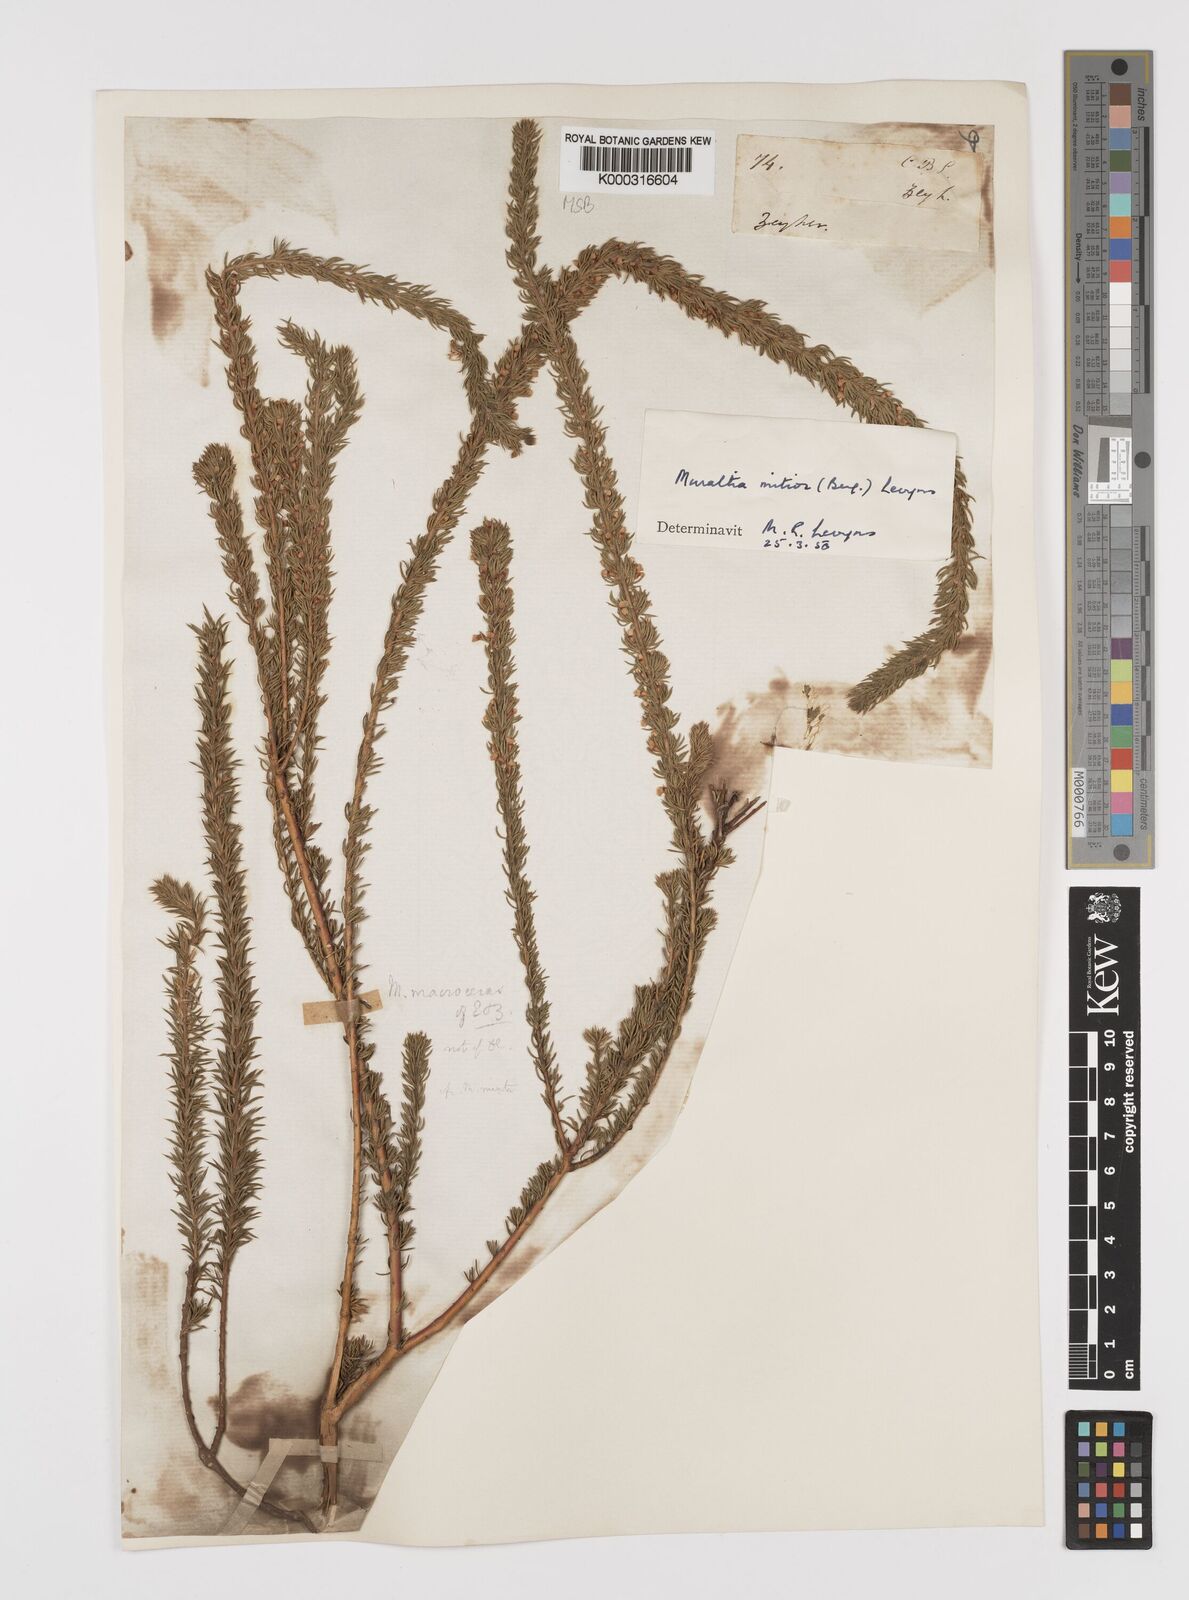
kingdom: Plantae
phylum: Tracheophyta
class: Magnoliopsida
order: Fabales
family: Polygalaceae
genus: Muraltia
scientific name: Muraltia
